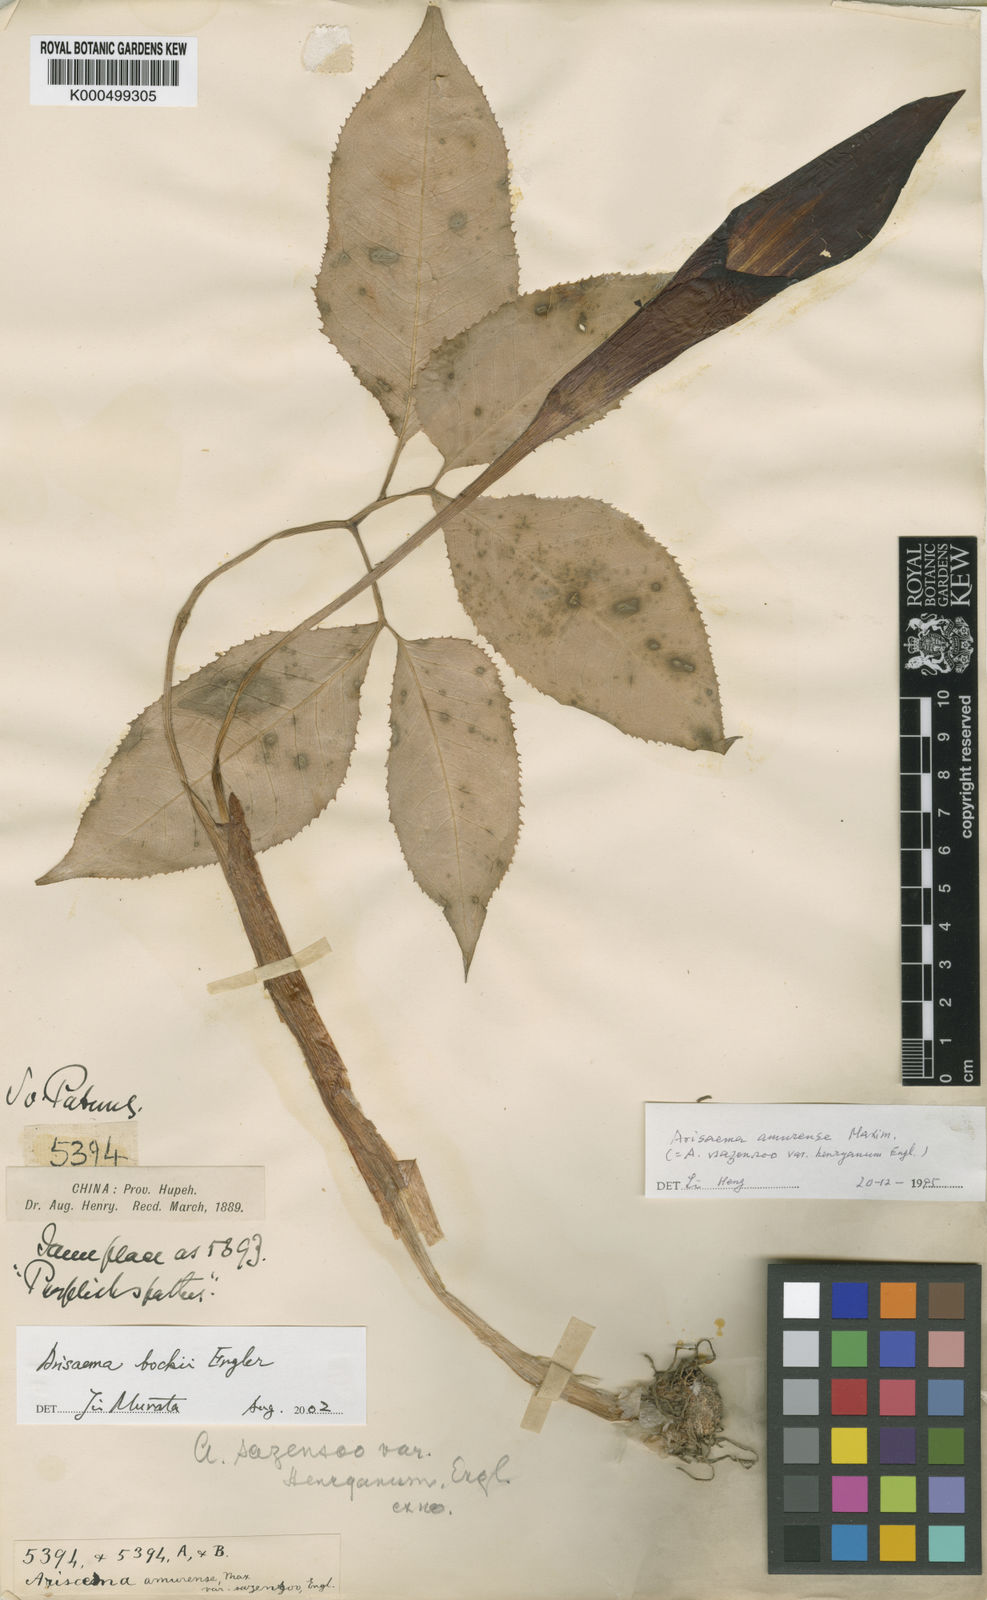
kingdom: Plantae
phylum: Tracheophyta
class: Liliopsida
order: Alismatales
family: Araceae
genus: Arisaema
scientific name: Arisaema amurense
